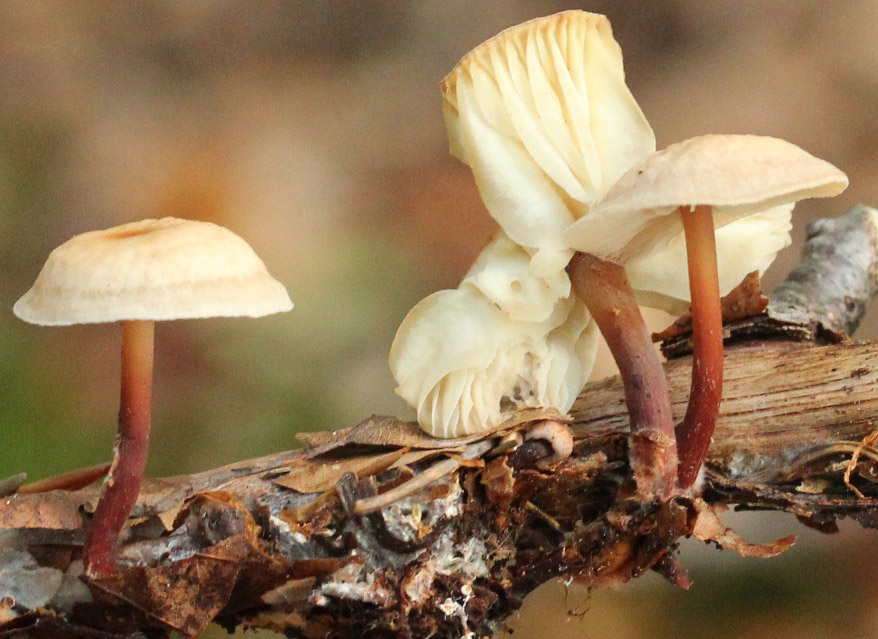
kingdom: Fungi
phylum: Basidiomycota
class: Agaricomycetes
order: Agaricales
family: Omphalotaceae
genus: Gymnopus
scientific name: Gymnopus erythropus
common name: rødstokket fladhat
